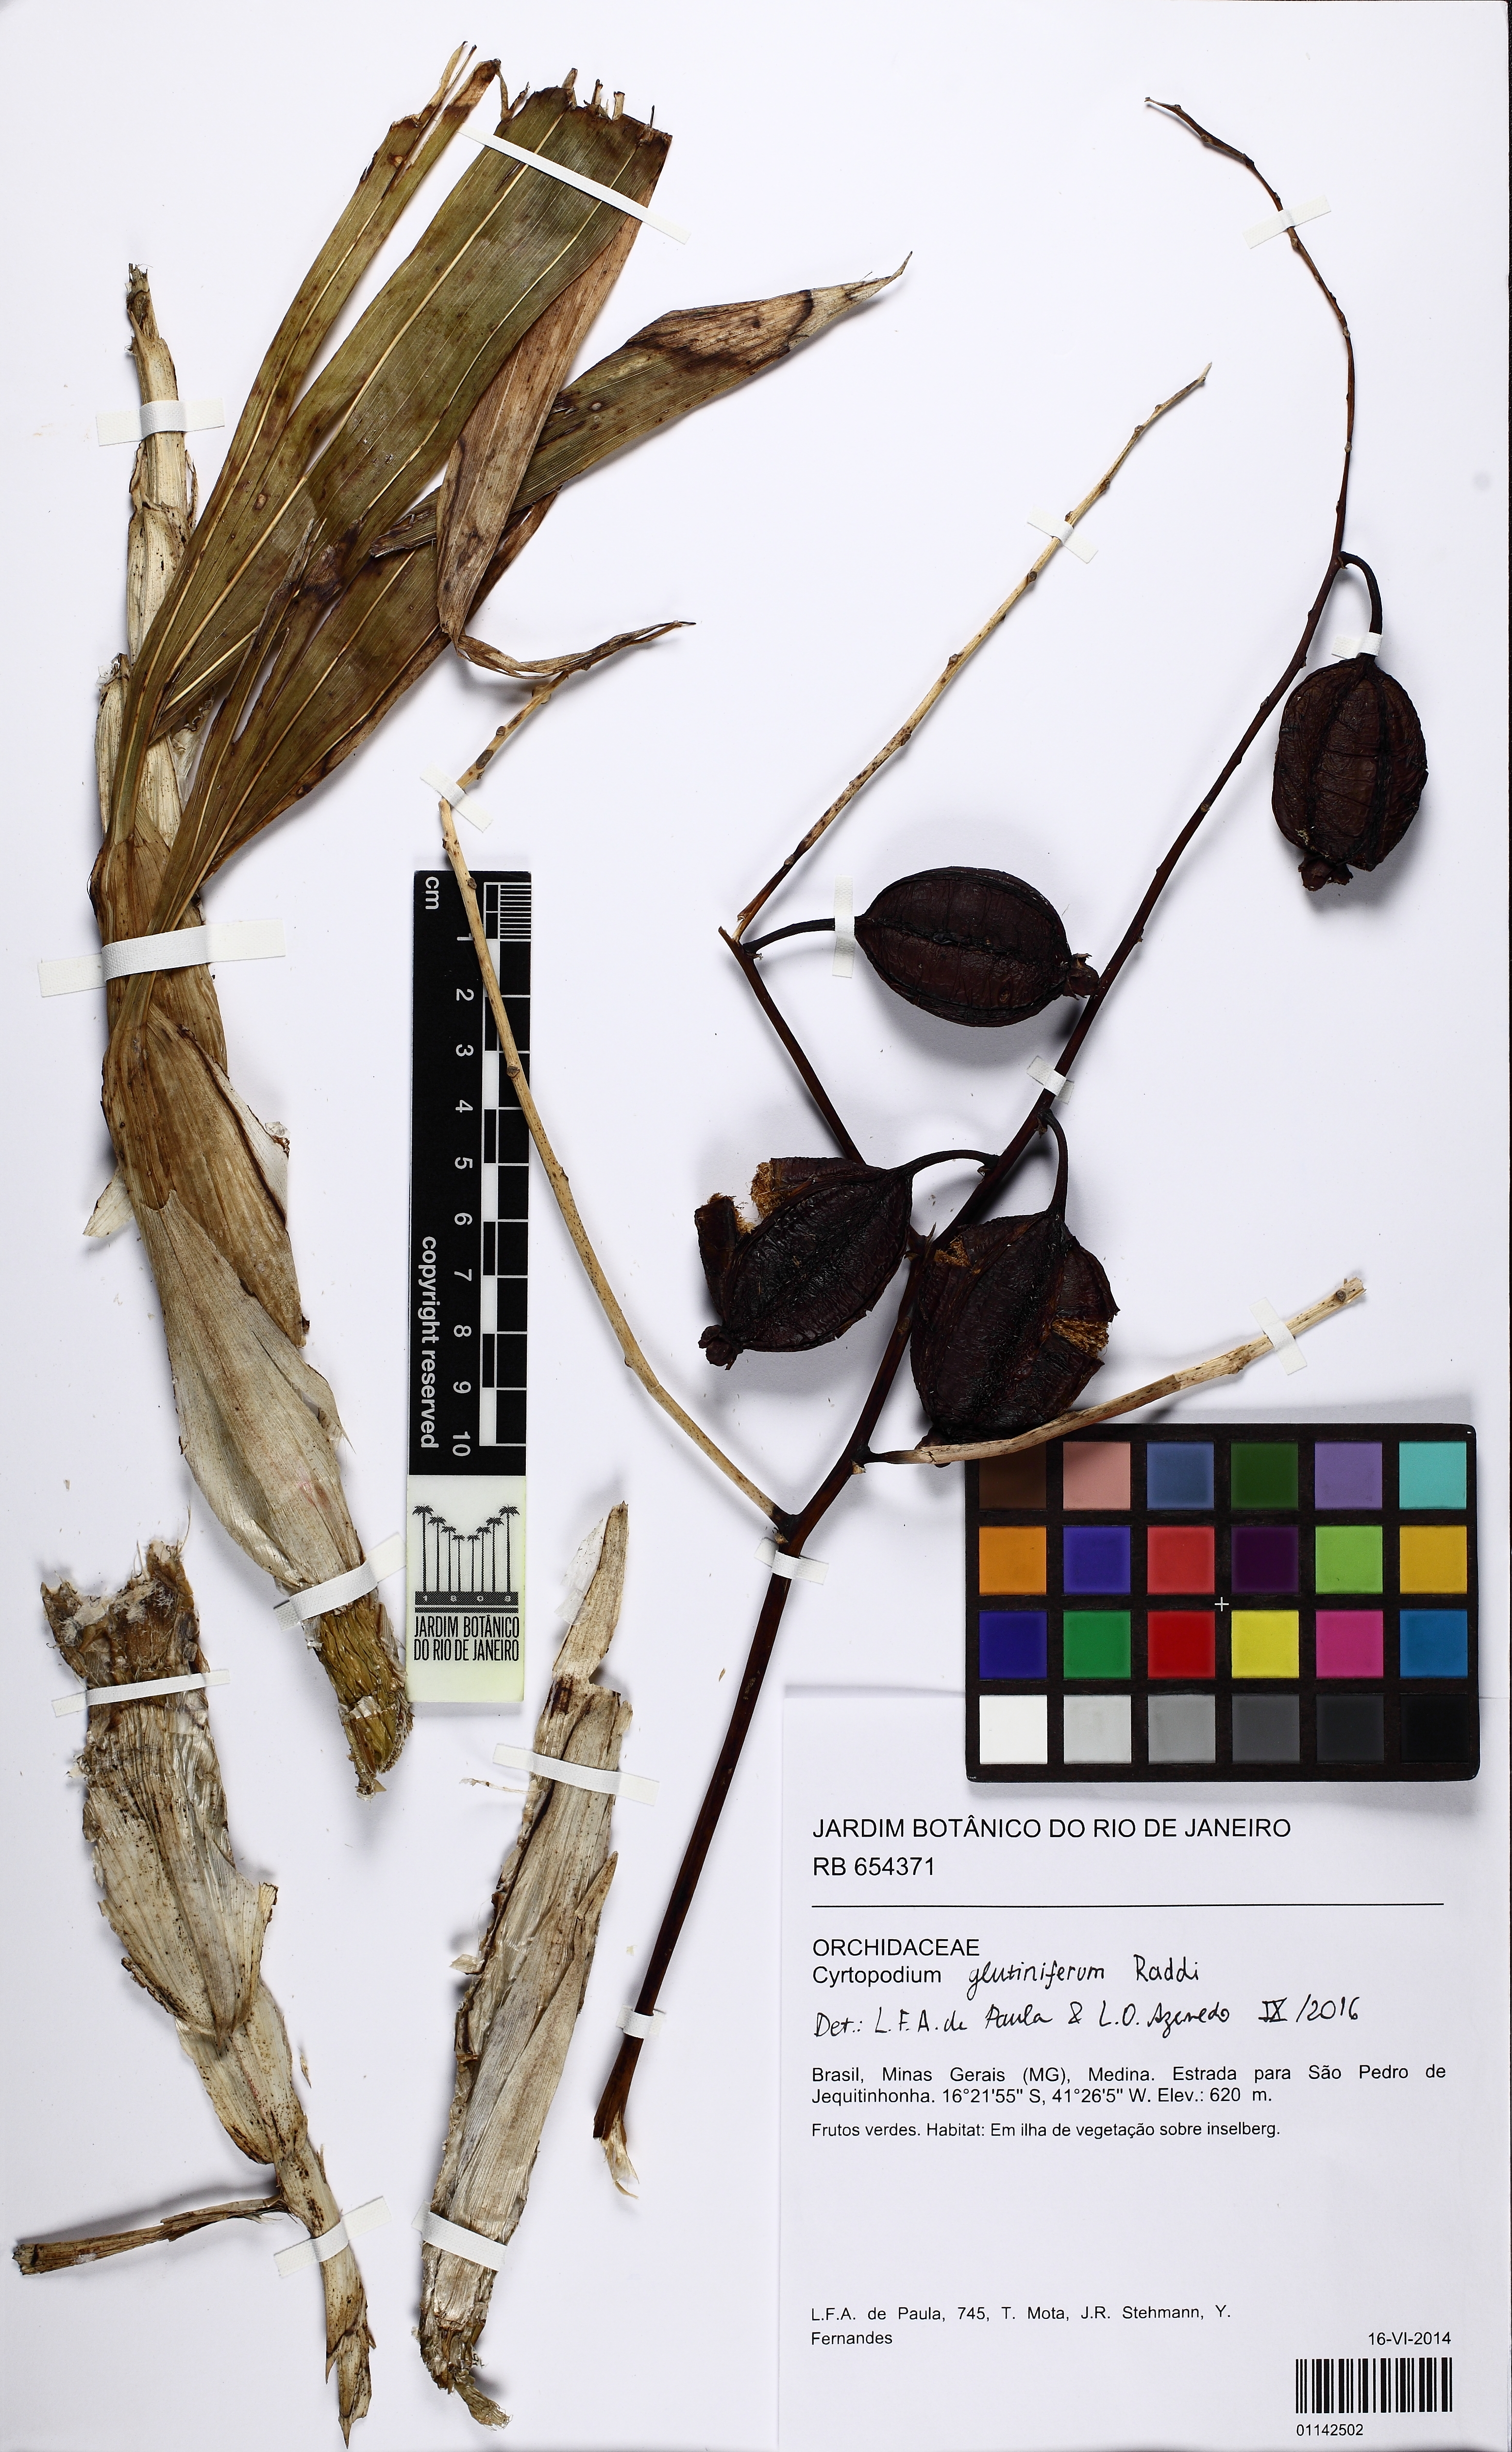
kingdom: Plantae
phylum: Tracheophyta
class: Liliopsida
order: Asparagales
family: Orchidaceae
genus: Cyrtopodium
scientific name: Cyrtopodium glutiniferum
